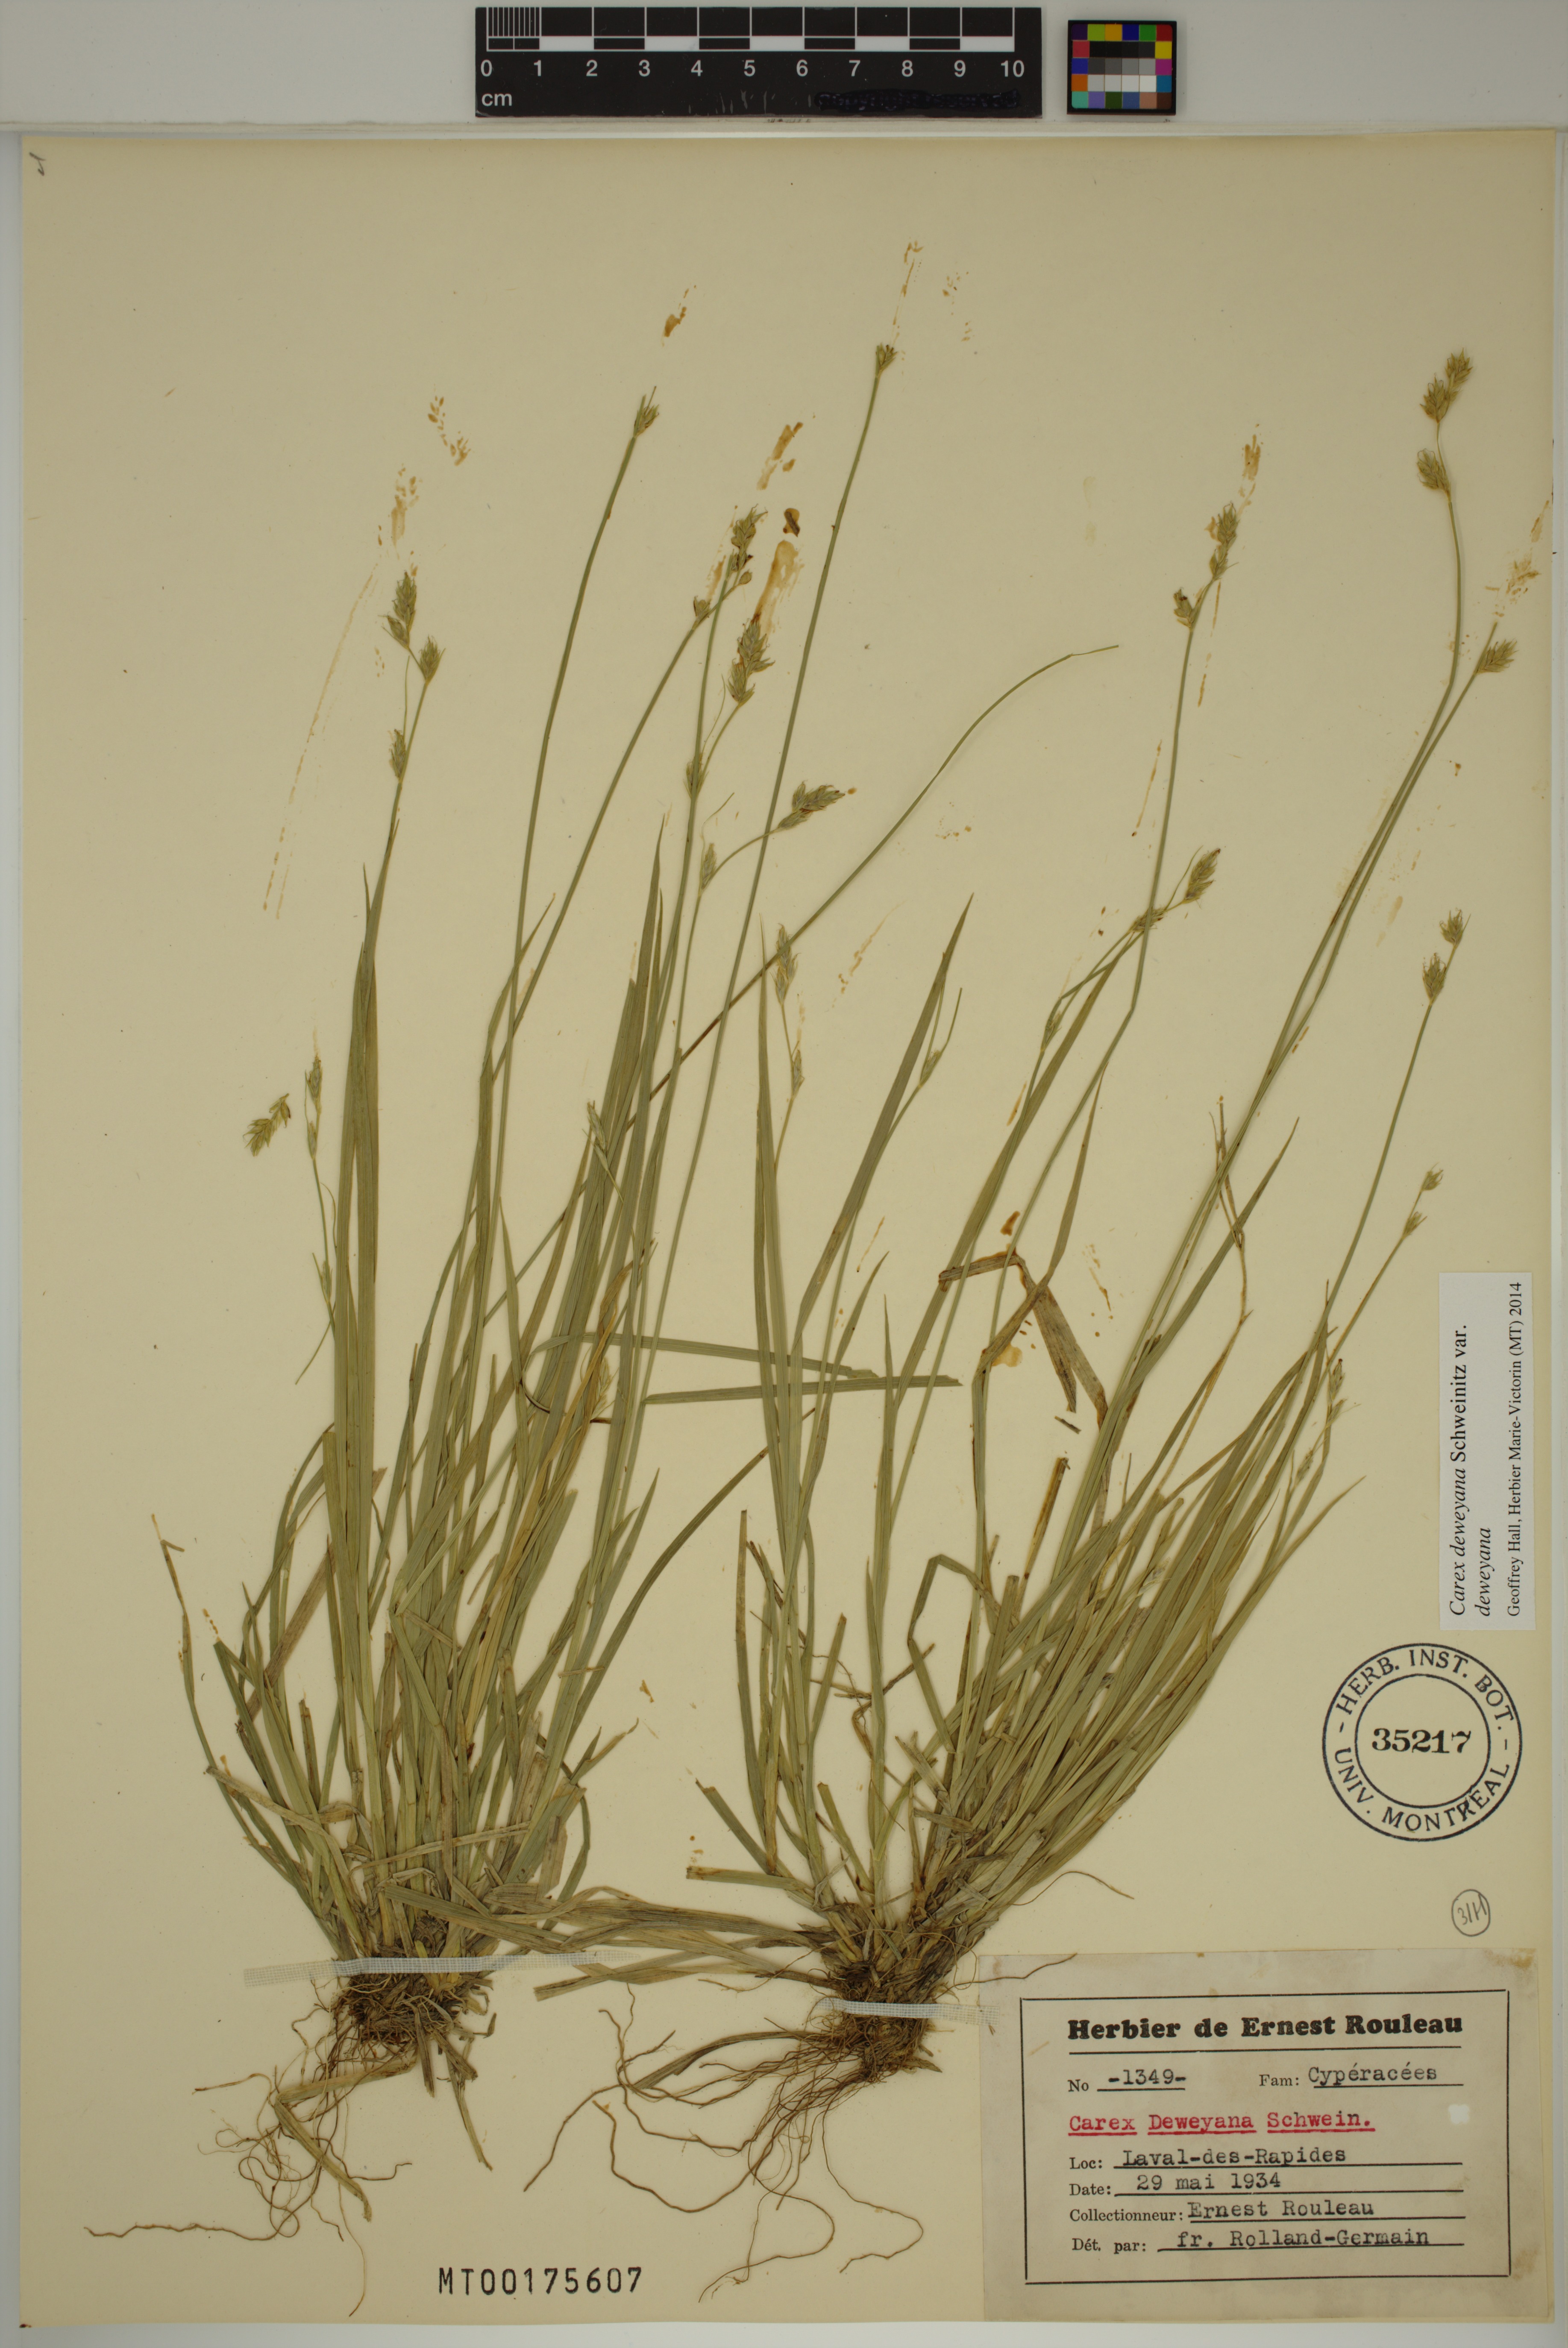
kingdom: Plantae
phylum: Tracheophyta
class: Liliopsida
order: Poales
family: Cyperaceae
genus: Carex
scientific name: Carex deweyana
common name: Dewey's sedge
